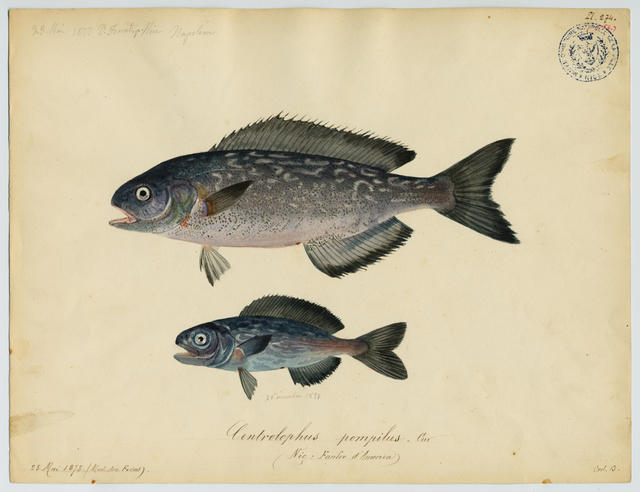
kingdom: Animalia
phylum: Chordata
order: Perciformes
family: Centrolophidae
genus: Centrolophus
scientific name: Centrolophus niger
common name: Blackfish
